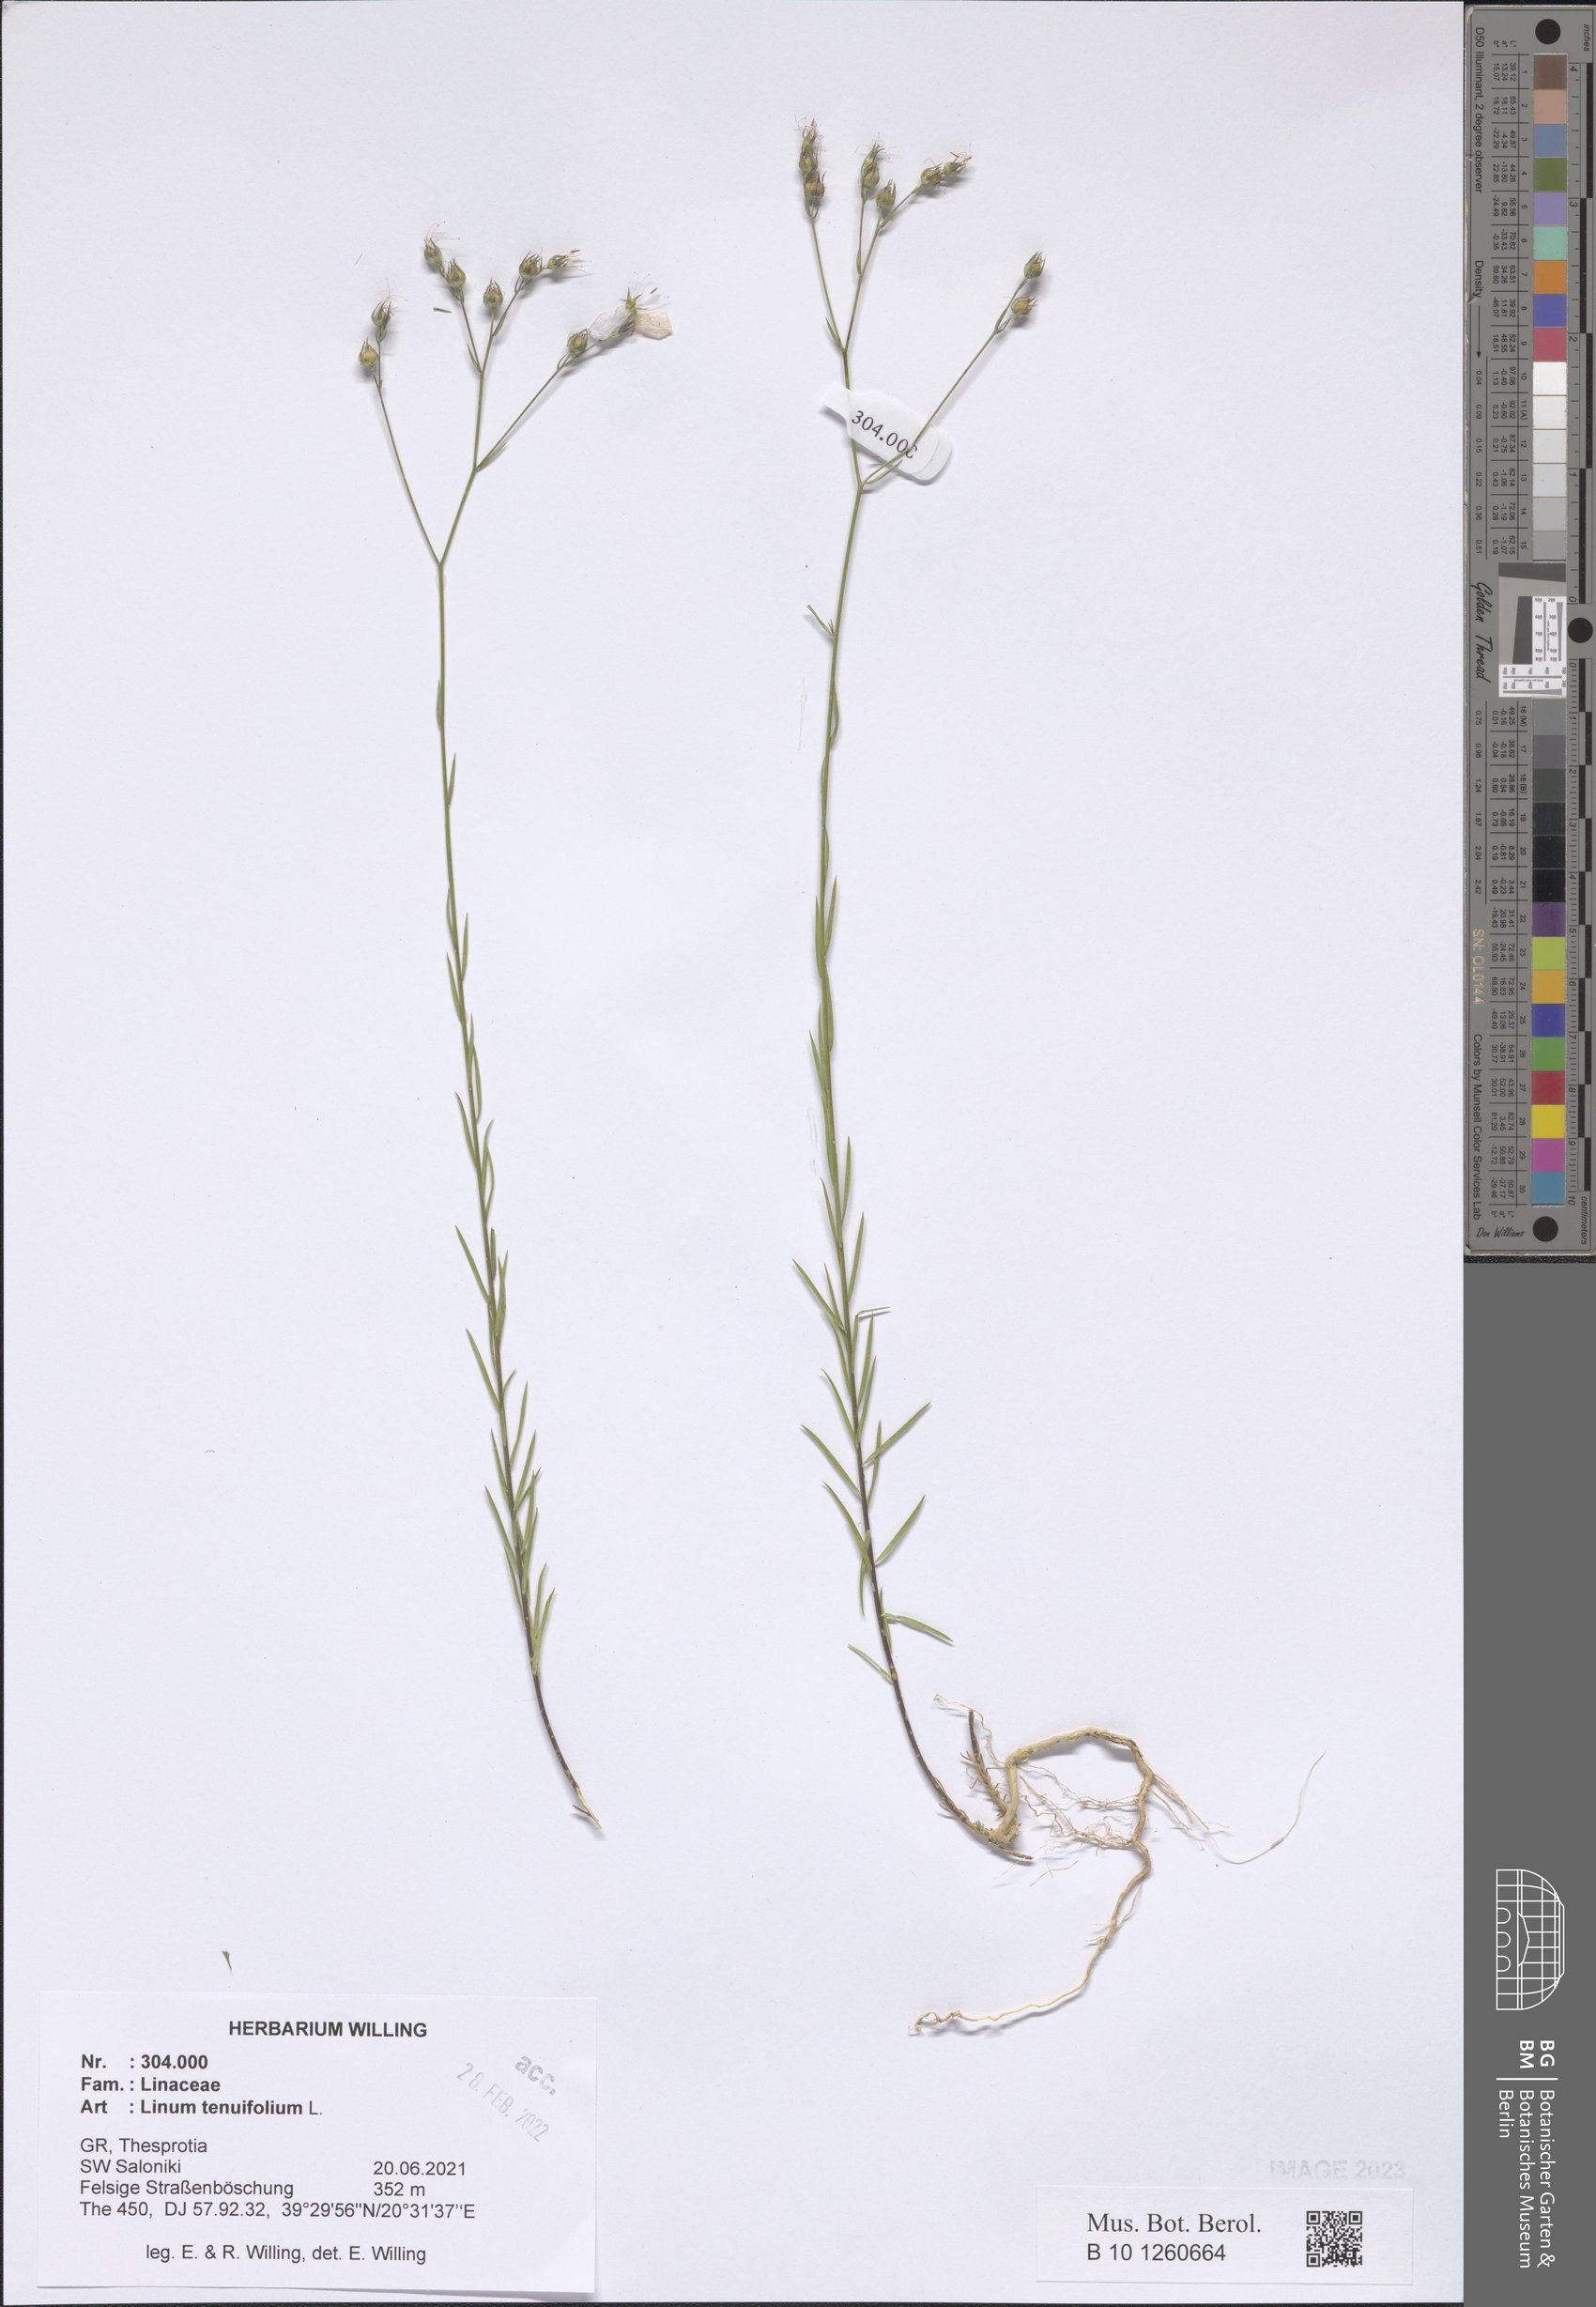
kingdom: Plantae
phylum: Tracheophyta
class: Magnoliopsida
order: Malpighiales
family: Linaceae
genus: Linum
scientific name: Linum tenuifolium
